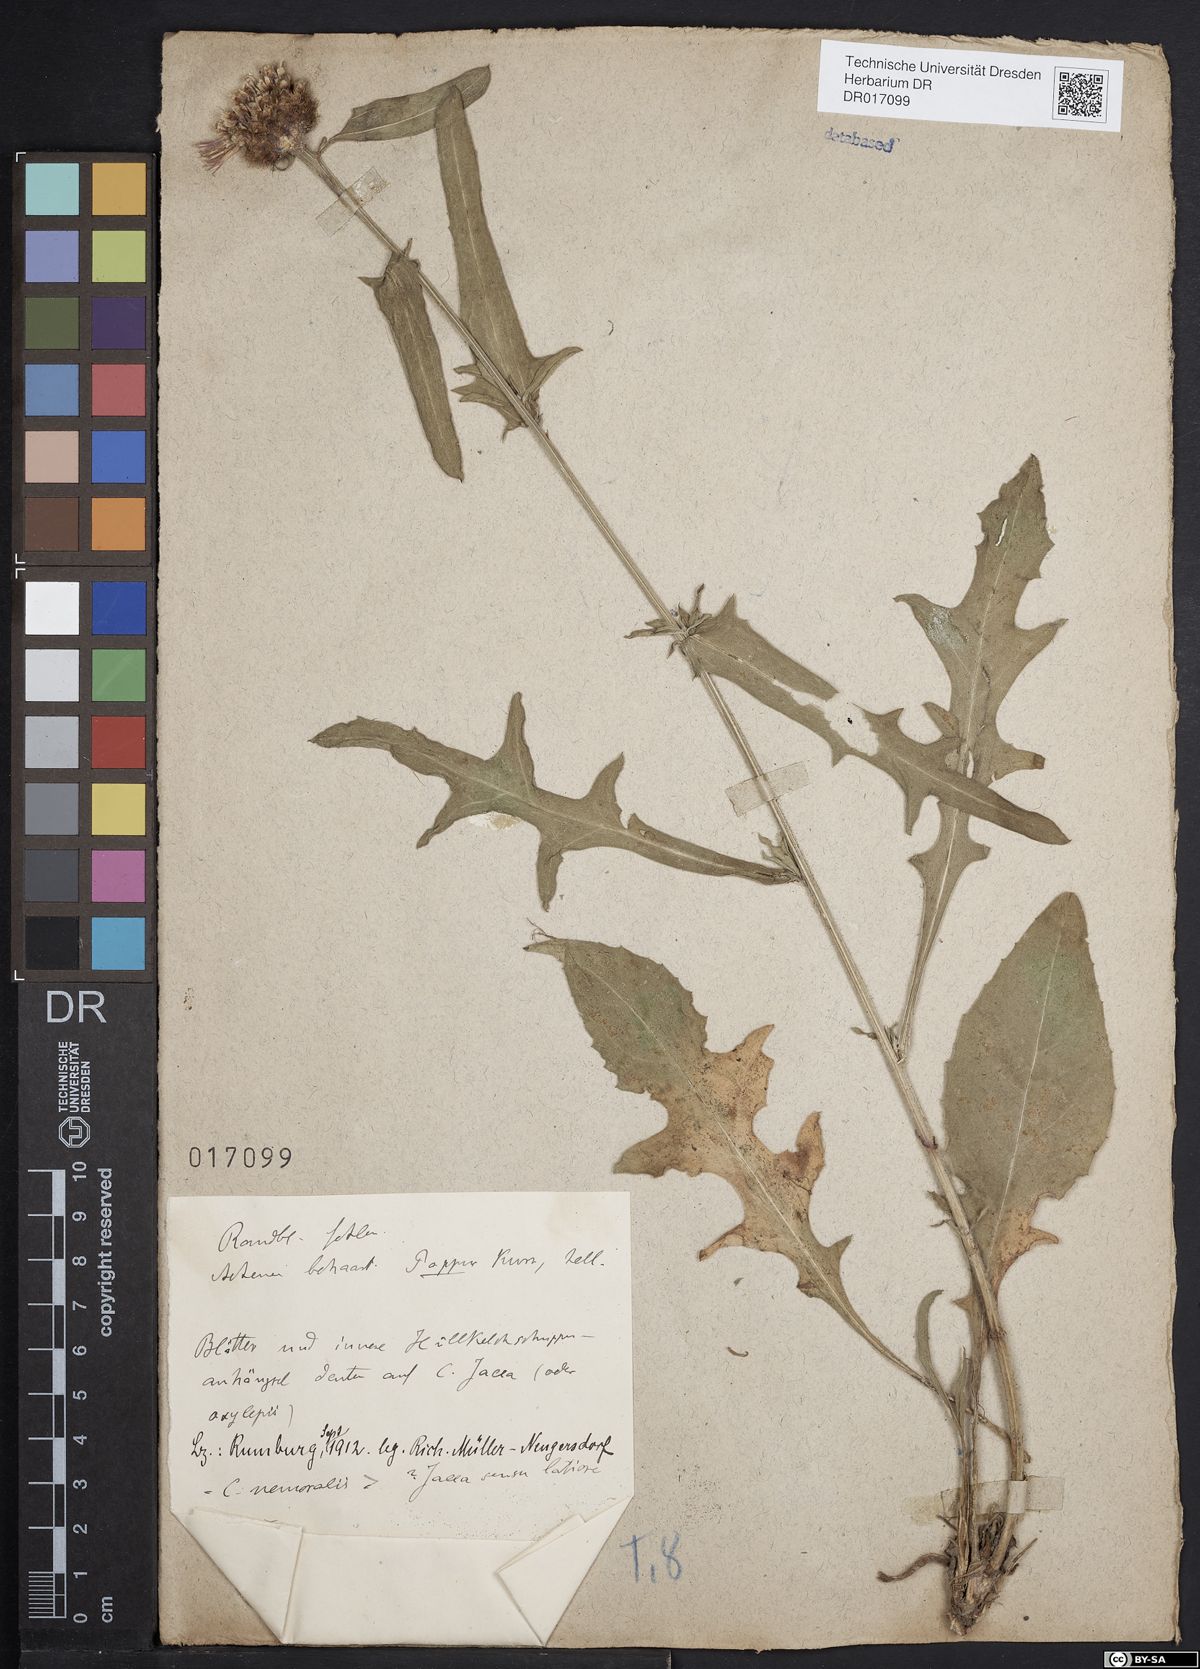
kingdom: Plantae
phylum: Tracheophyta
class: Magnoliopsida
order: Asterales
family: Asteraceae
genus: Centaurea
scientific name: Centaurea gerstlaueri
